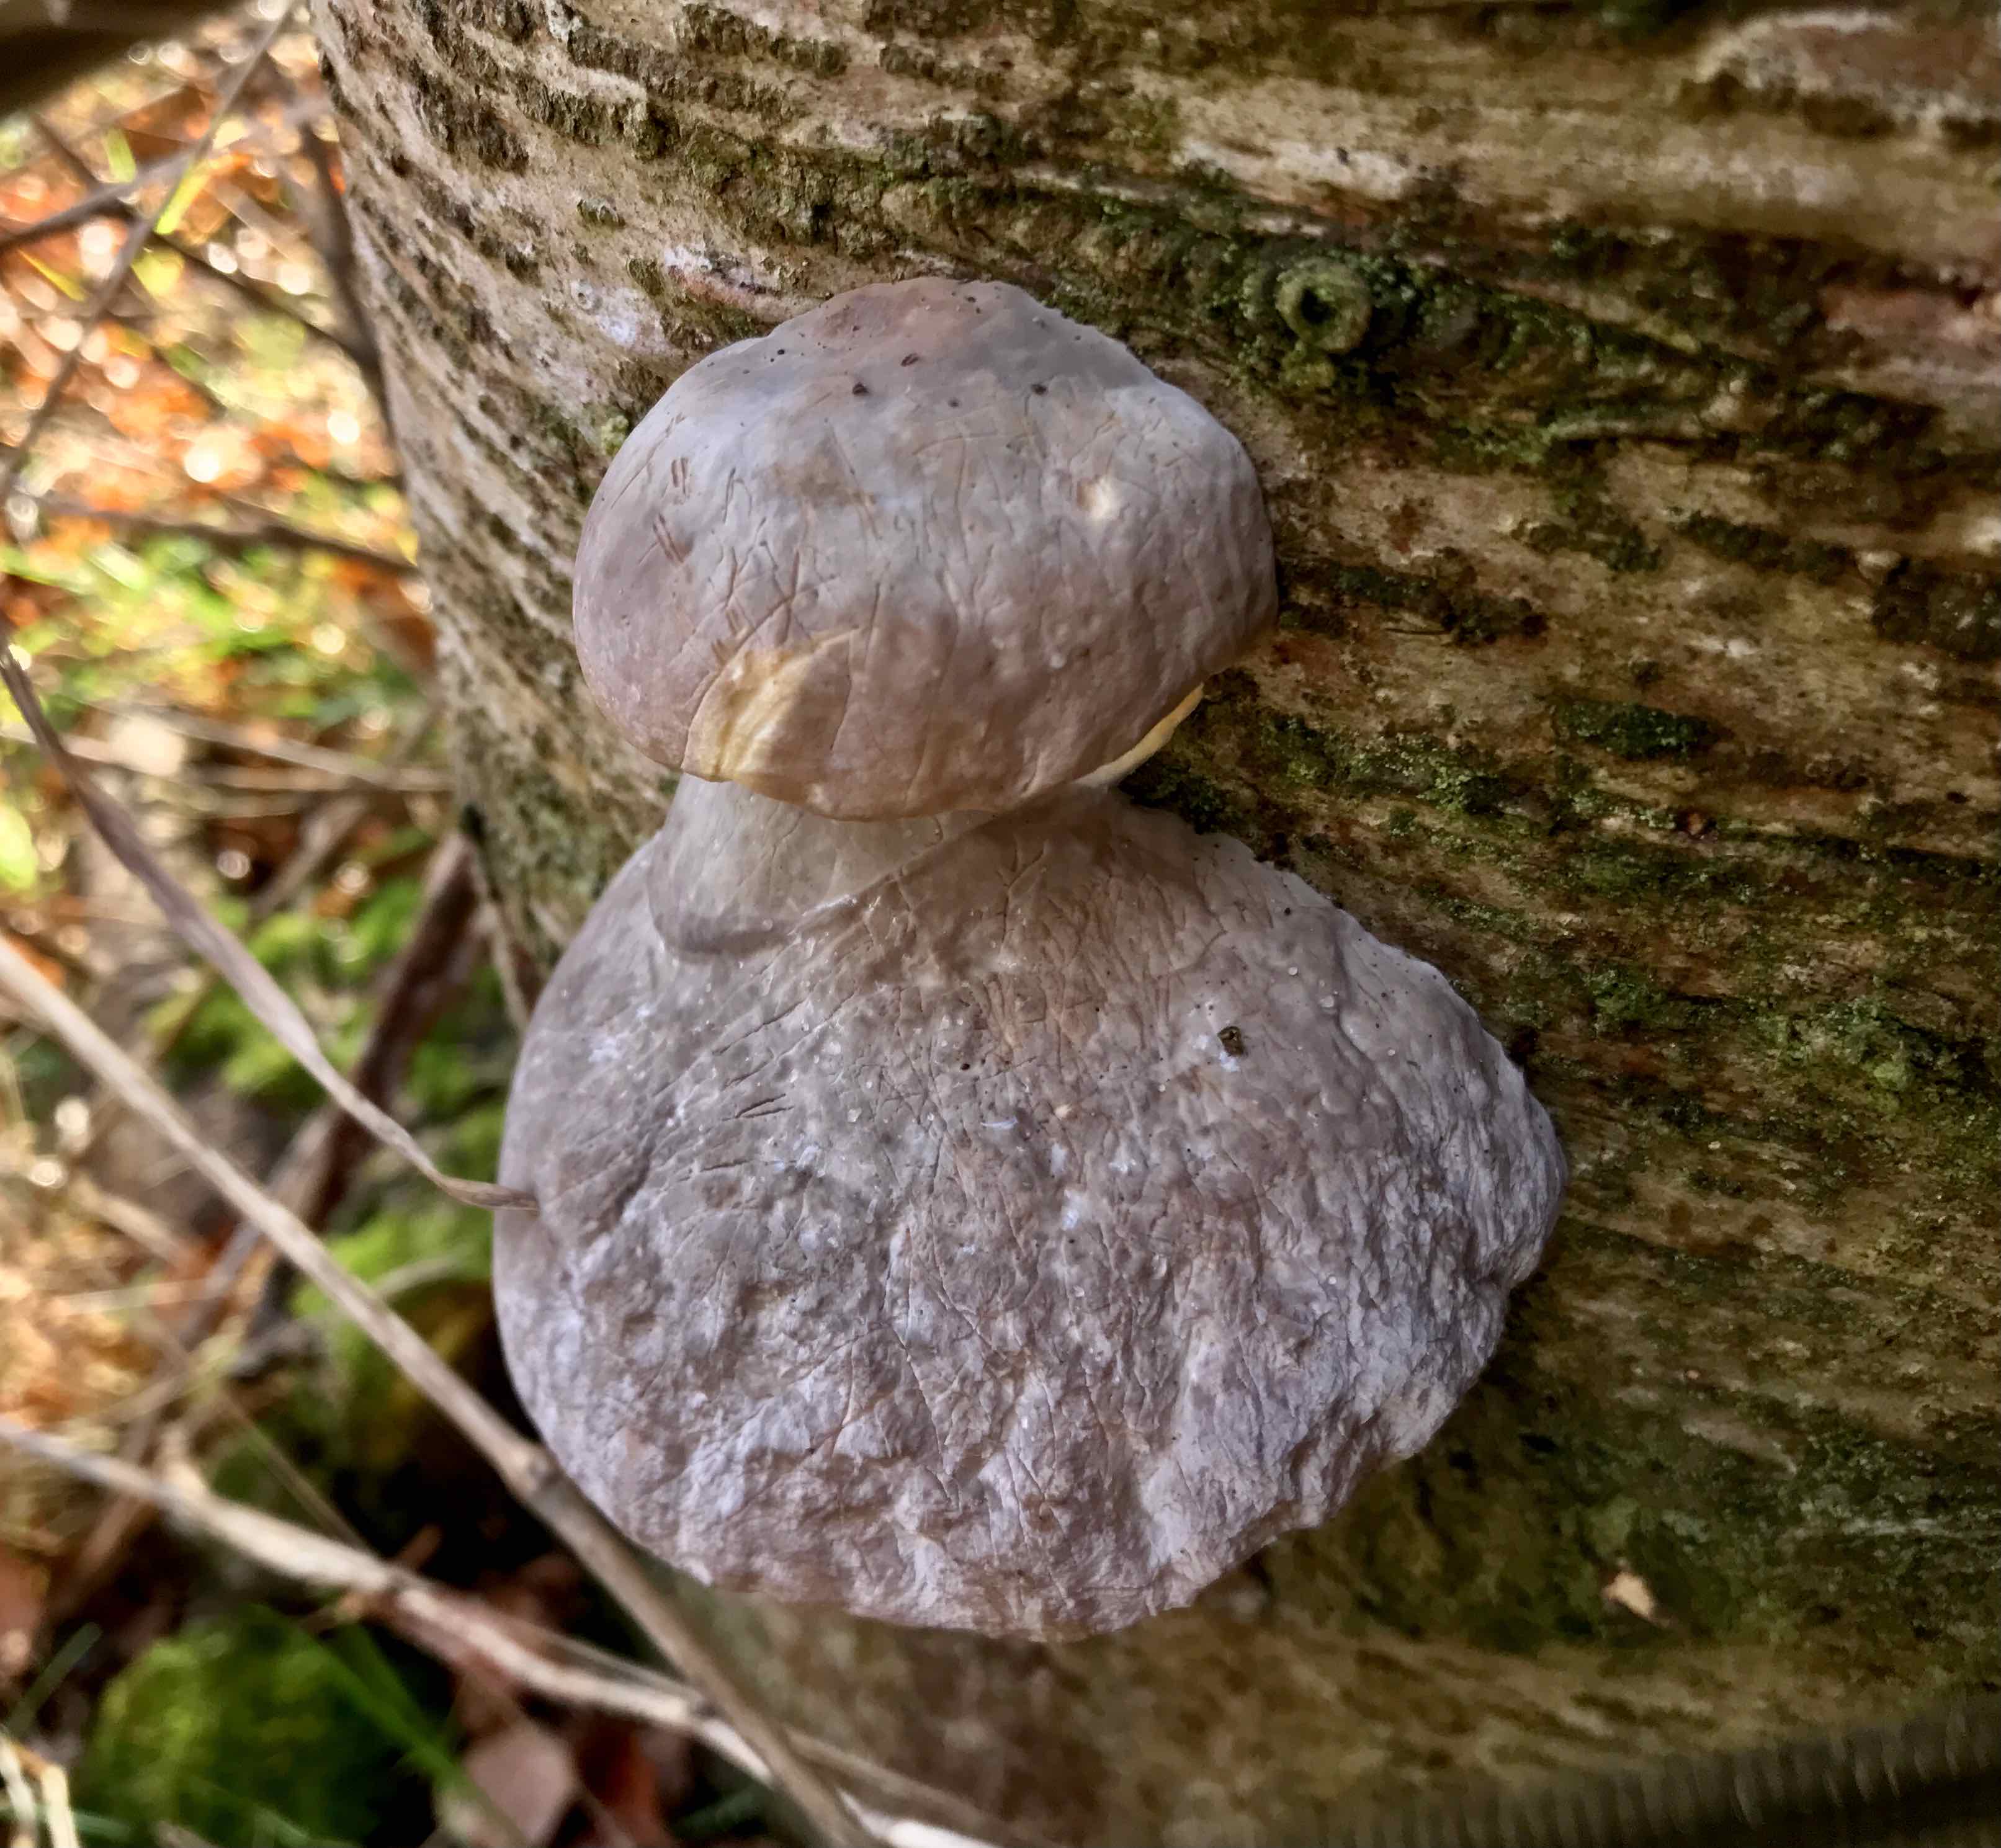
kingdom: Fungi
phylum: Basidiomycota
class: Agaricomycetes
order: Polyporales
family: Fomitopsidaceae
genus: Fomitopsis
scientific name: Fomitopsis pinicola
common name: randbæltet hovporesvamp
